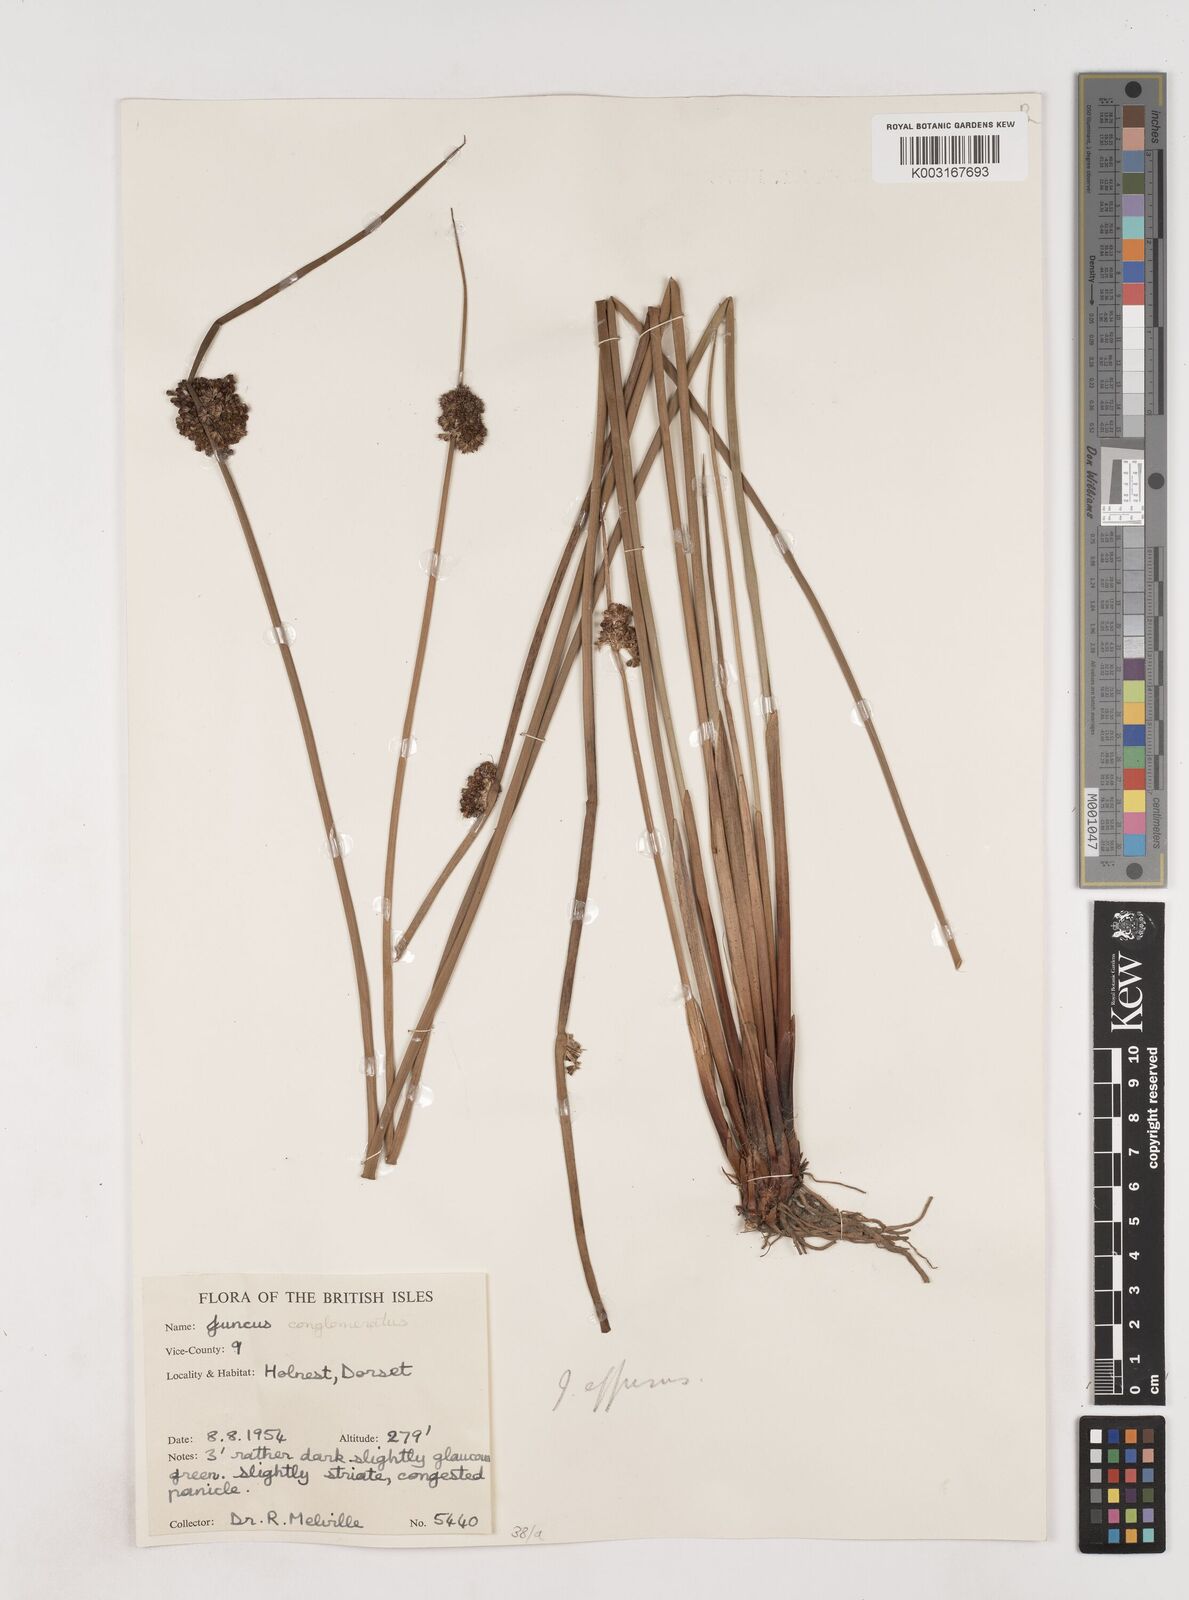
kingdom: Plantae
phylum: Tracheophyta
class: Liliopsida
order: Poales
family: Juncaceae
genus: Juncus
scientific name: Juncus effusus
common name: Soft rush
